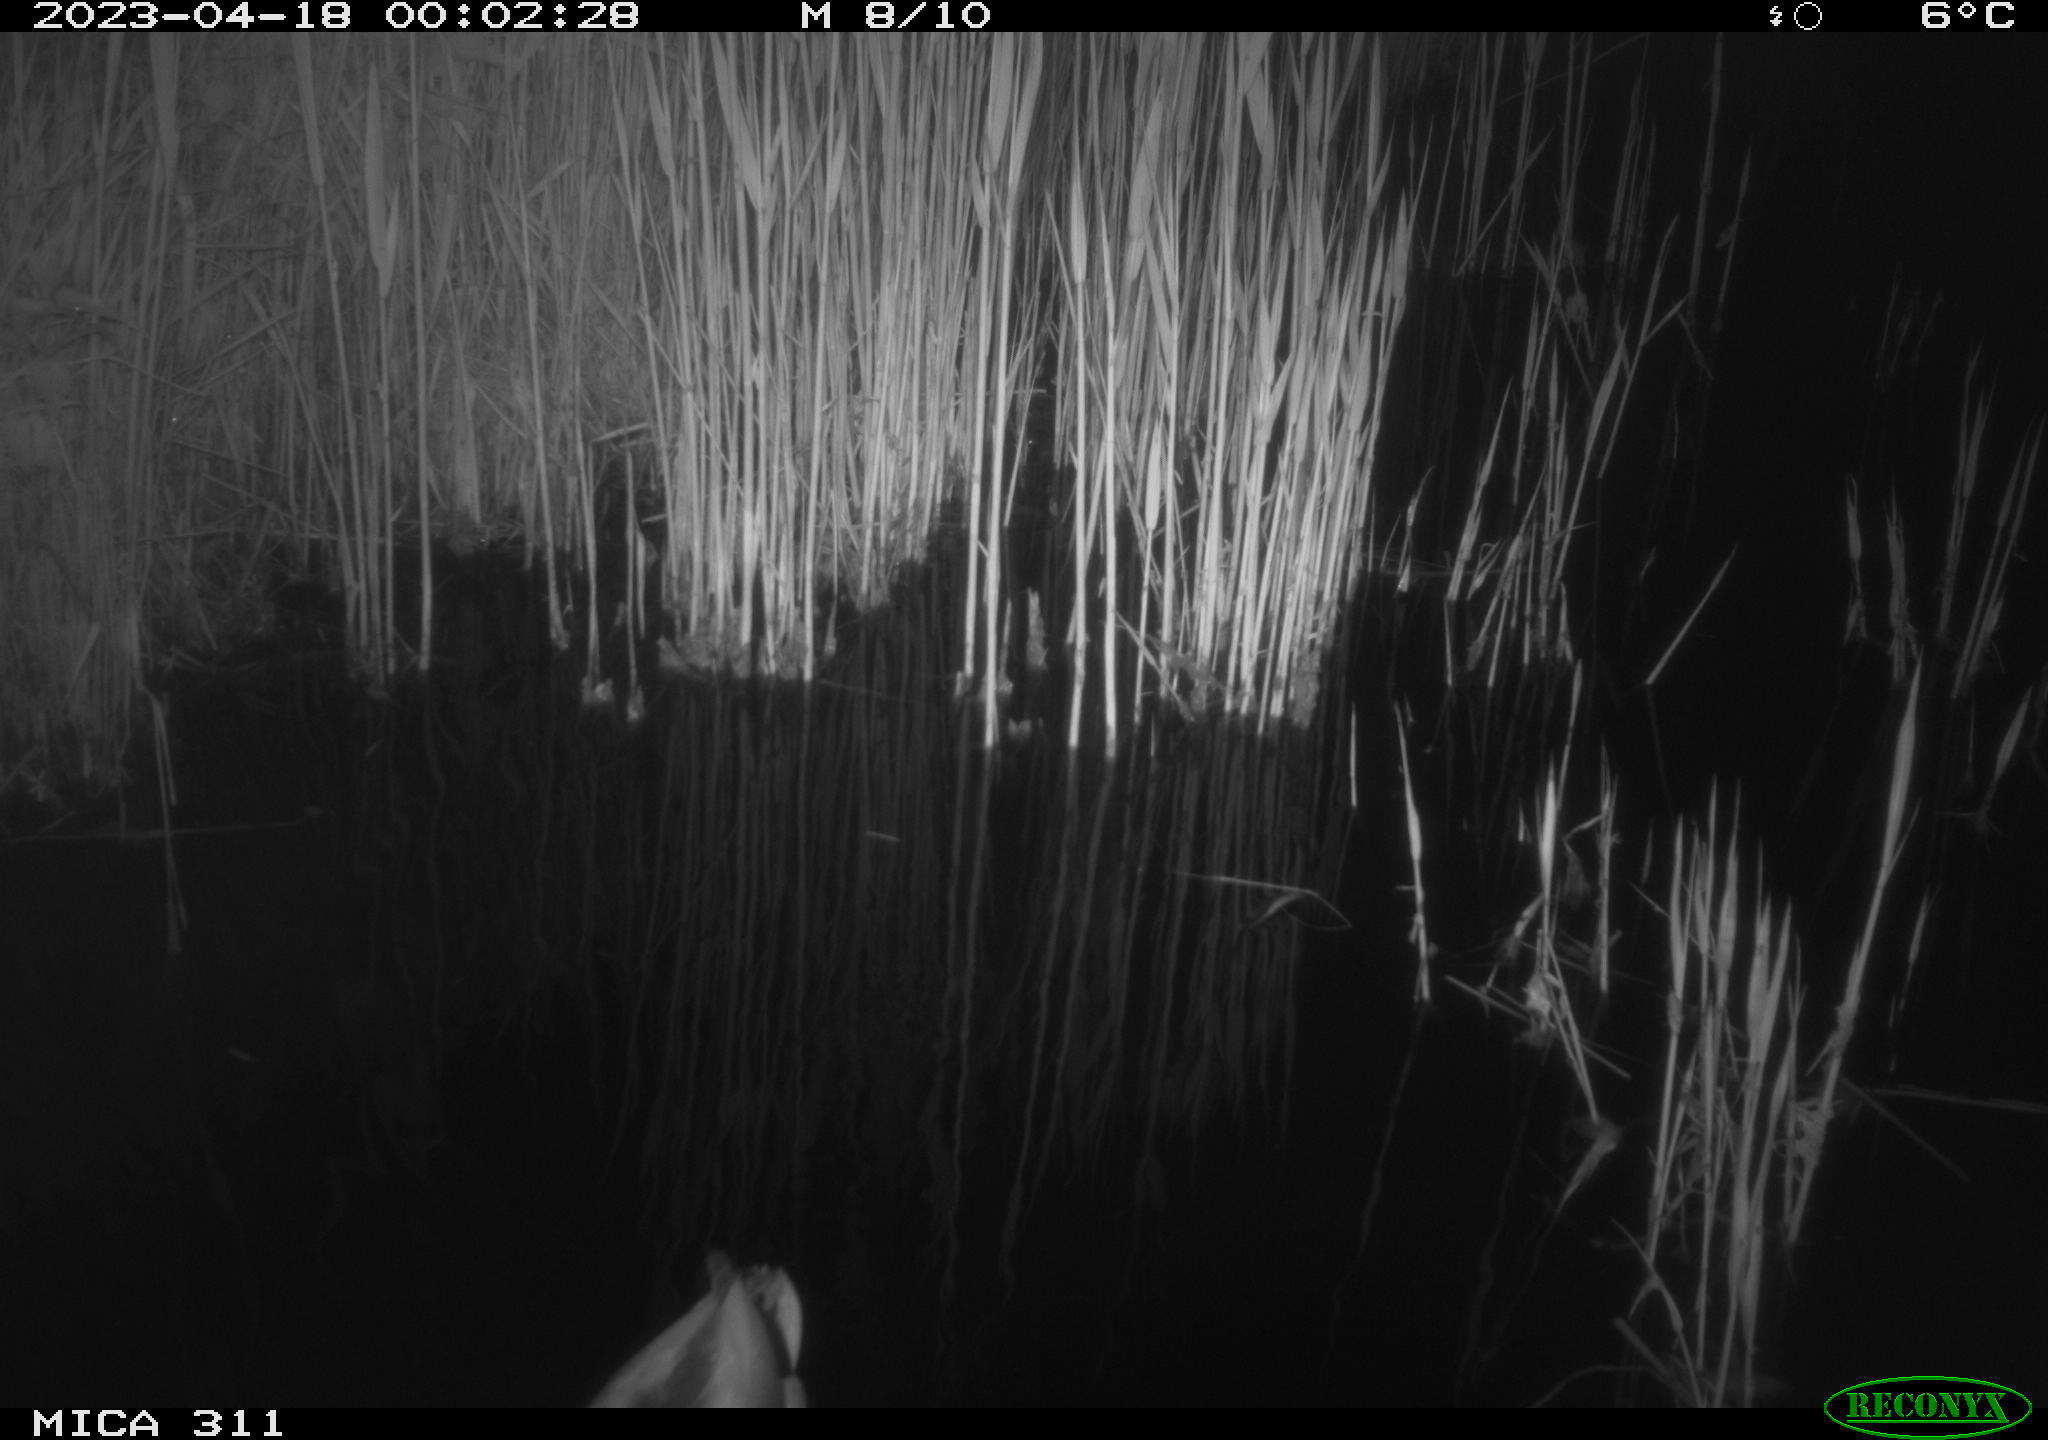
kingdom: Animalia
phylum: Chordata
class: Aves
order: Anseriformes
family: Anatidae
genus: Anas
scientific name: Anas
